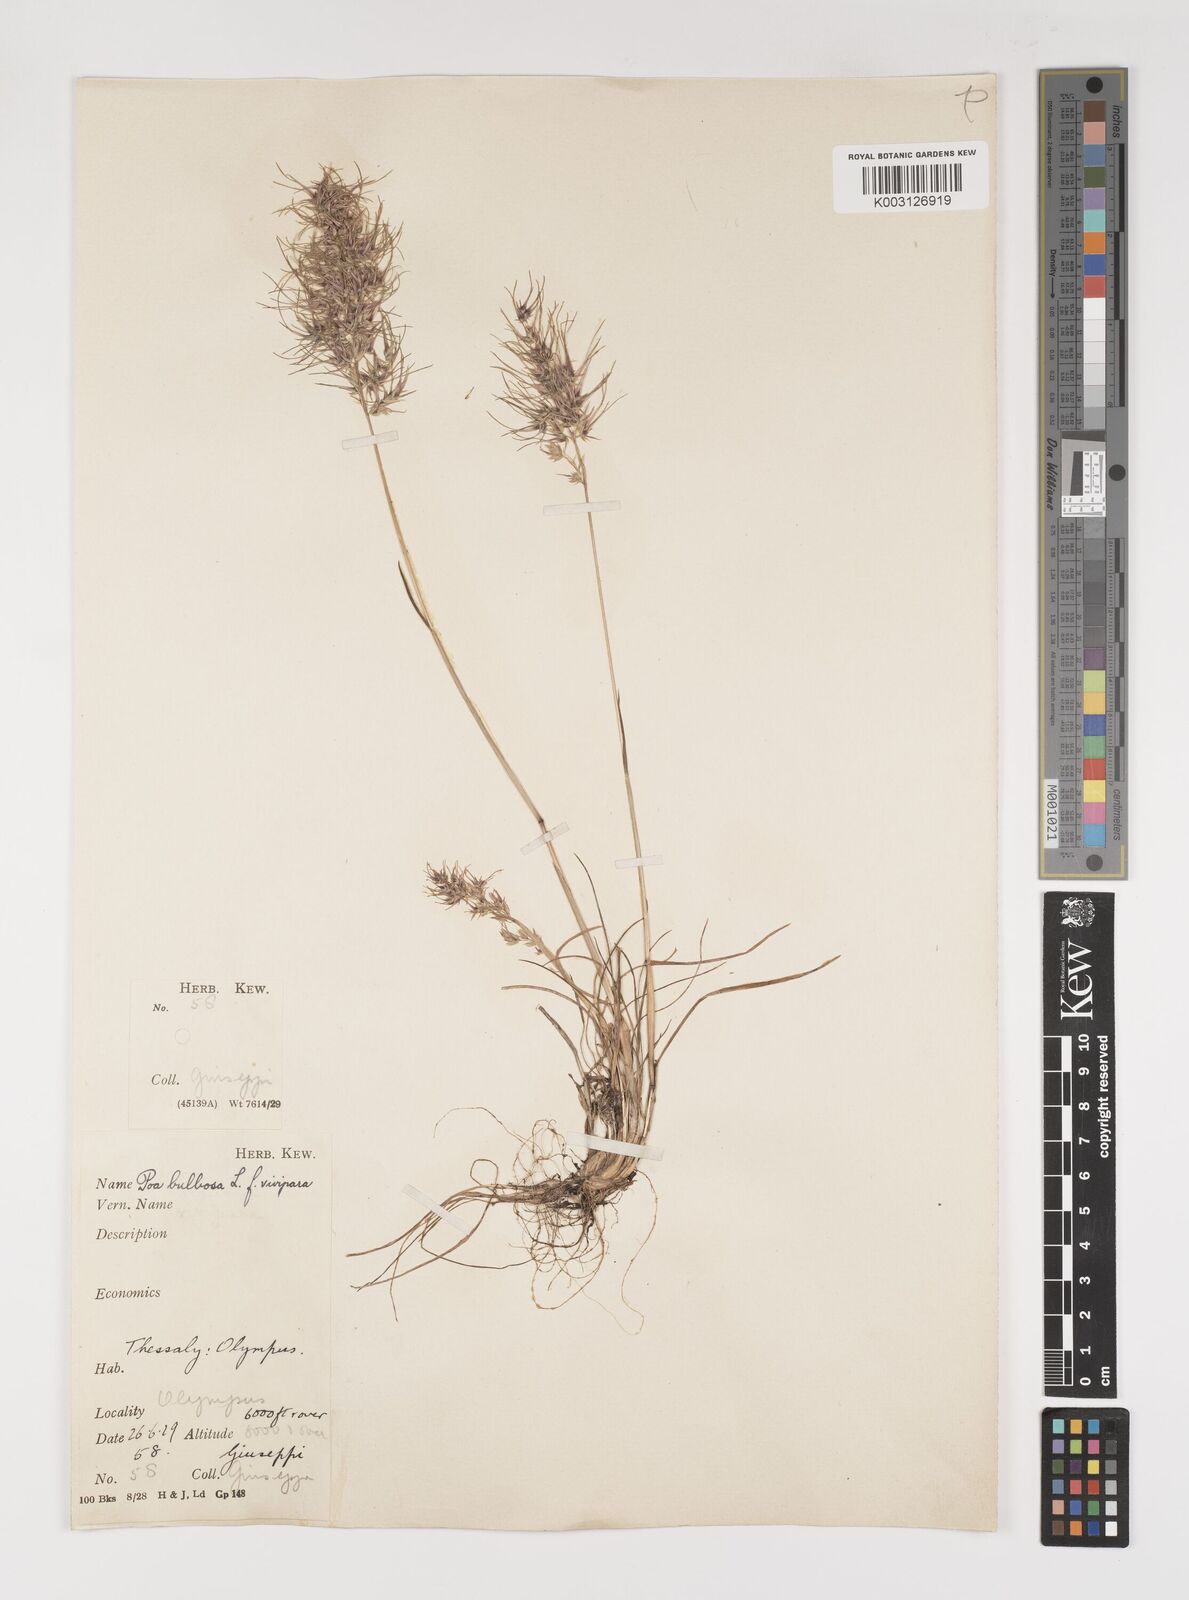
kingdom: Plantae
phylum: Tracheophyta
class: Liliopsida
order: Poales
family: Poaceae
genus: Poa
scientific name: Poa bulbosa
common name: Bulbous bluegrass
